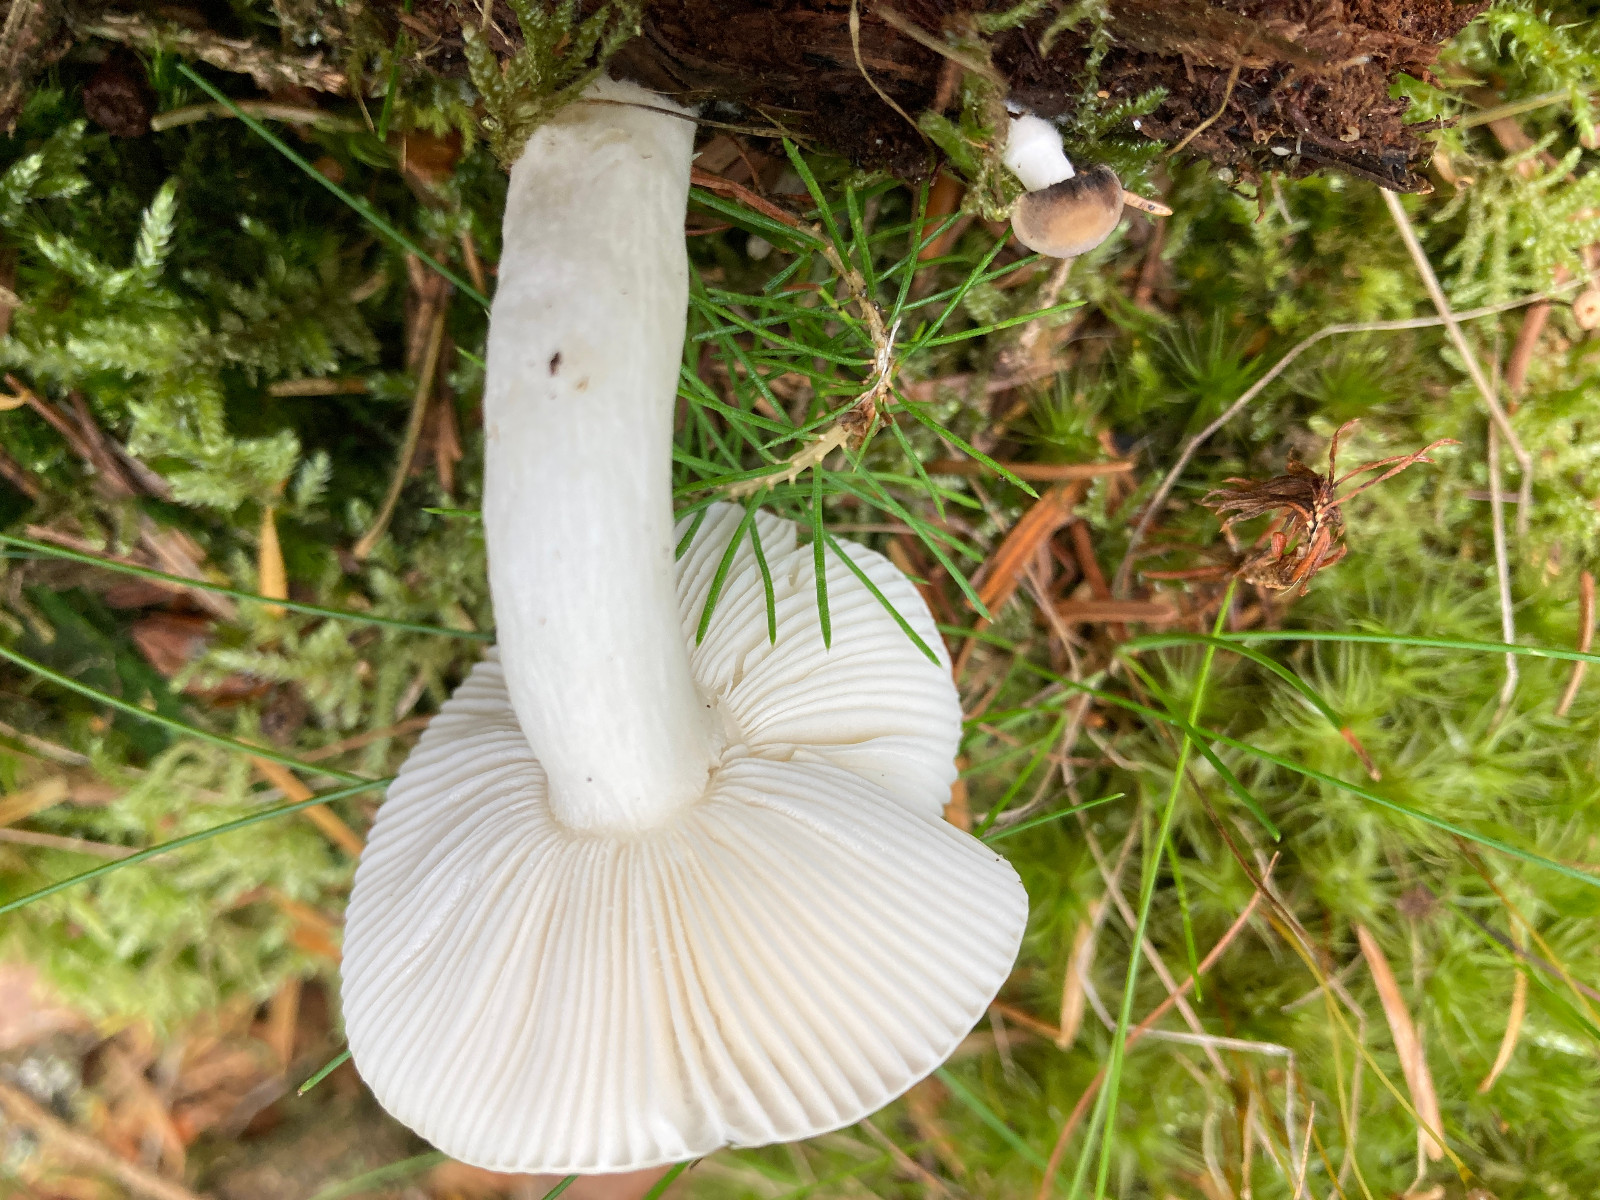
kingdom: Fungi
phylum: Basidiomycota
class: Agaricomycetes
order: Russulales
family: Russulaceae
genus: Russula
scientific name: Russula betularum
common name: bleg gift-skørhat
